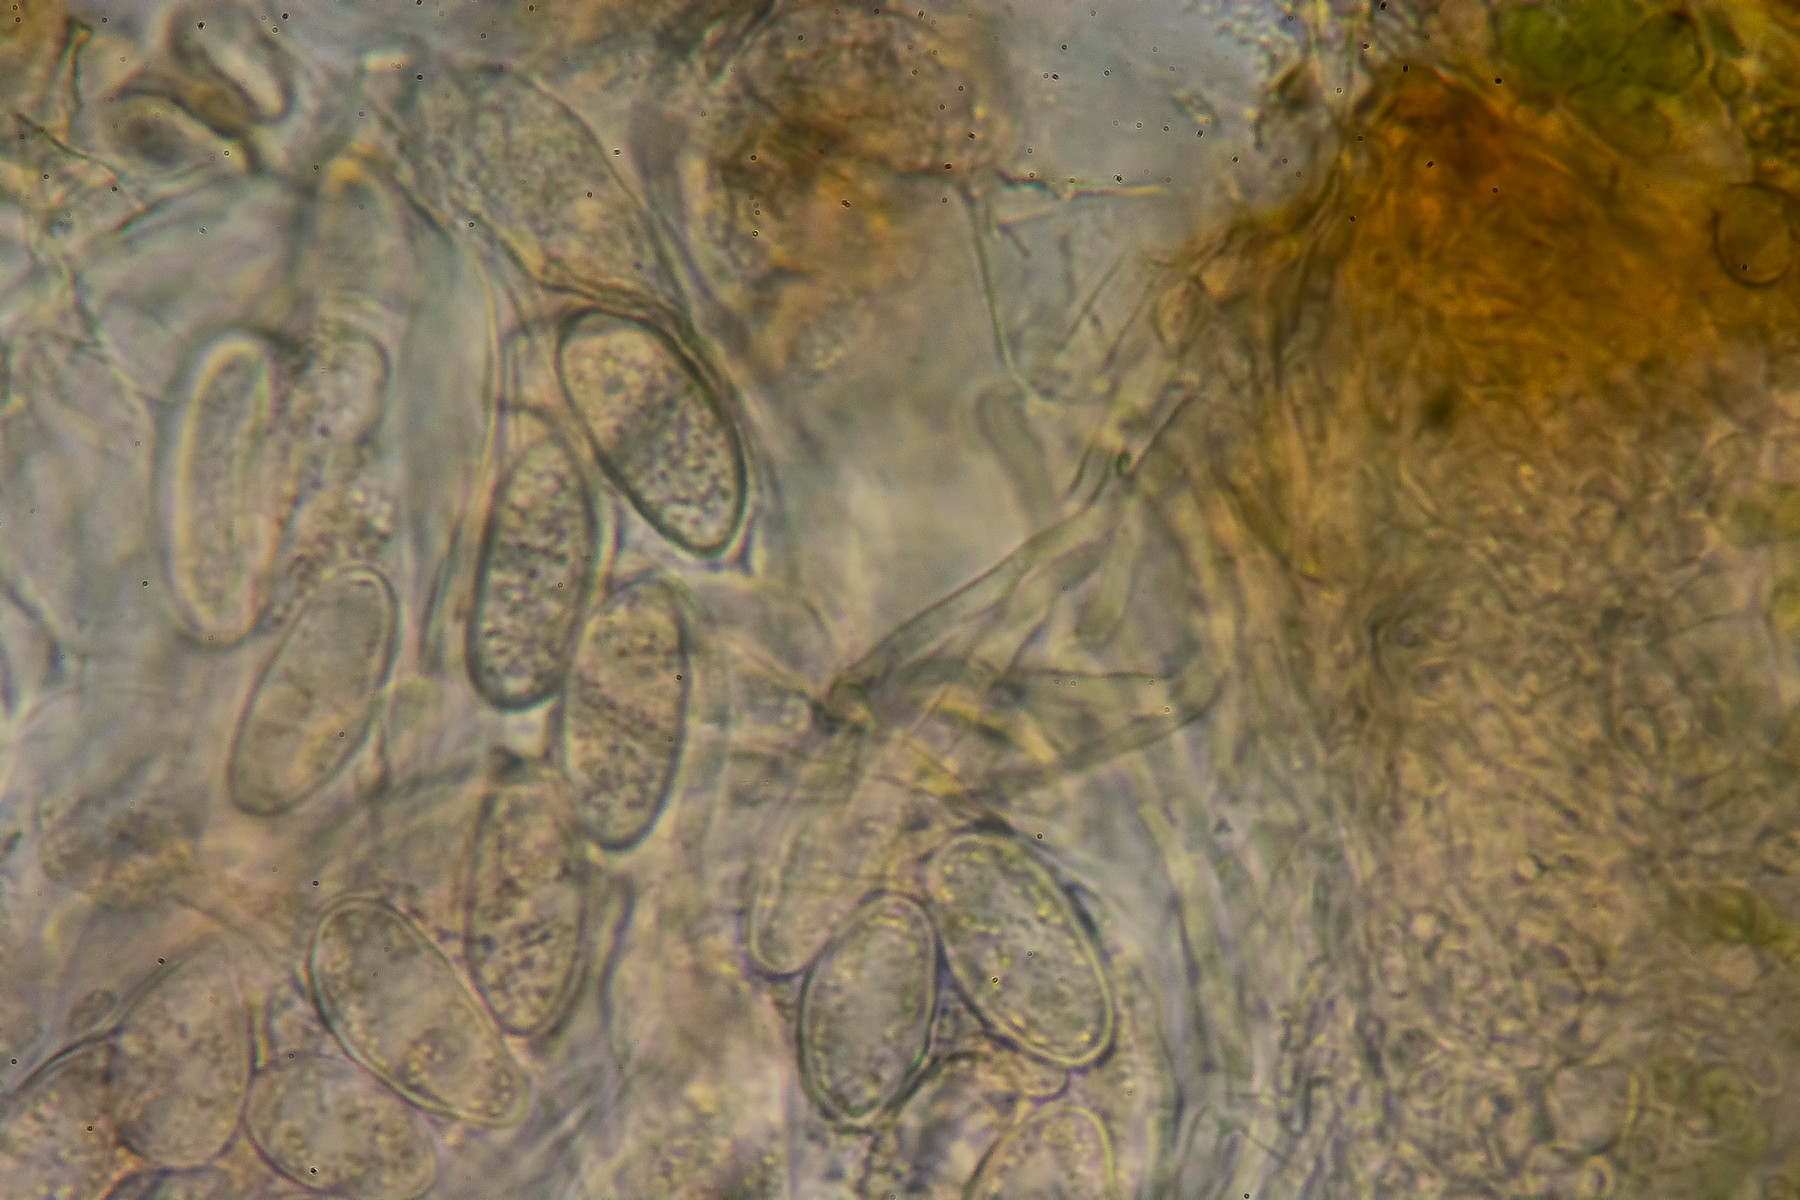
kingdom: Fungi
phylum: Ascomycota
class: Lichinomycetes
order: Lichinales
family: Lichinaceae
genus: Lempholemma
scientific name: Lempholemma chalazanum
